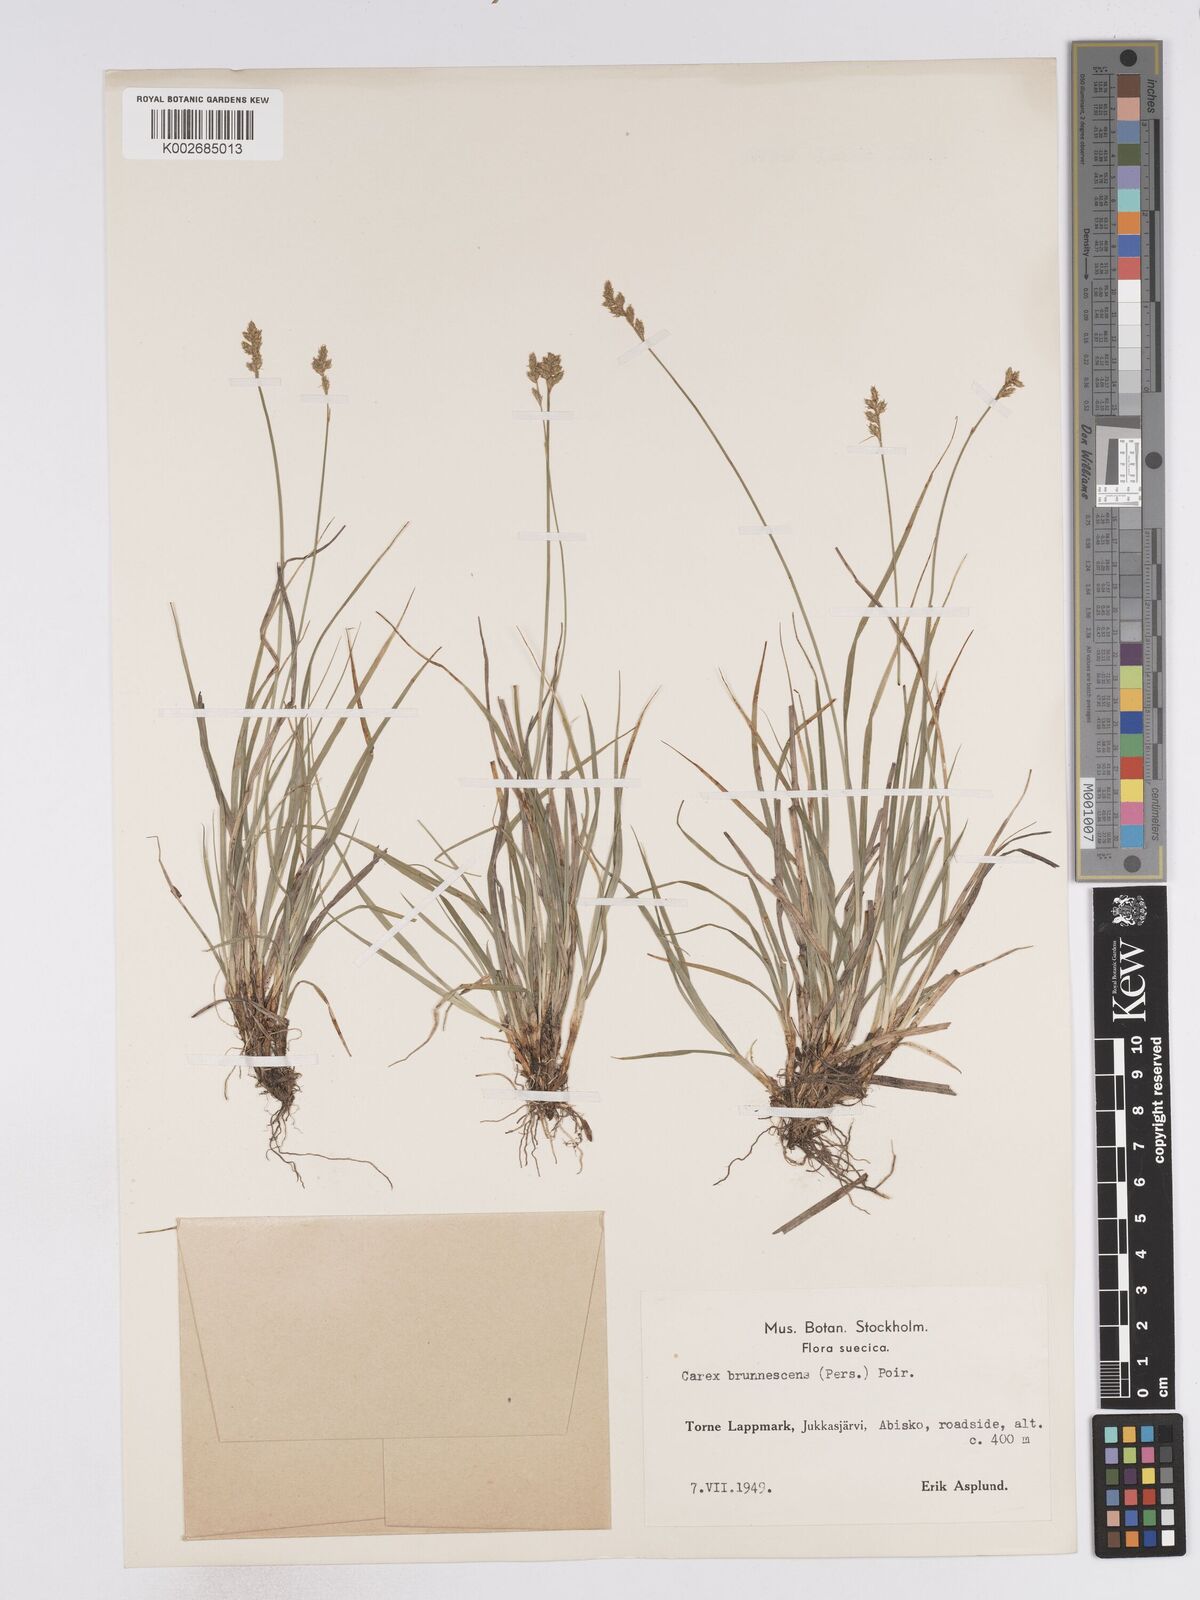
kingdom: Plantae
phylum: Tracheophyta
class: Liliopsida
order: Poales
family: Cyperaceae
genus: Carex
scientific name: Carex brunnescens
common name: Brown sedge
